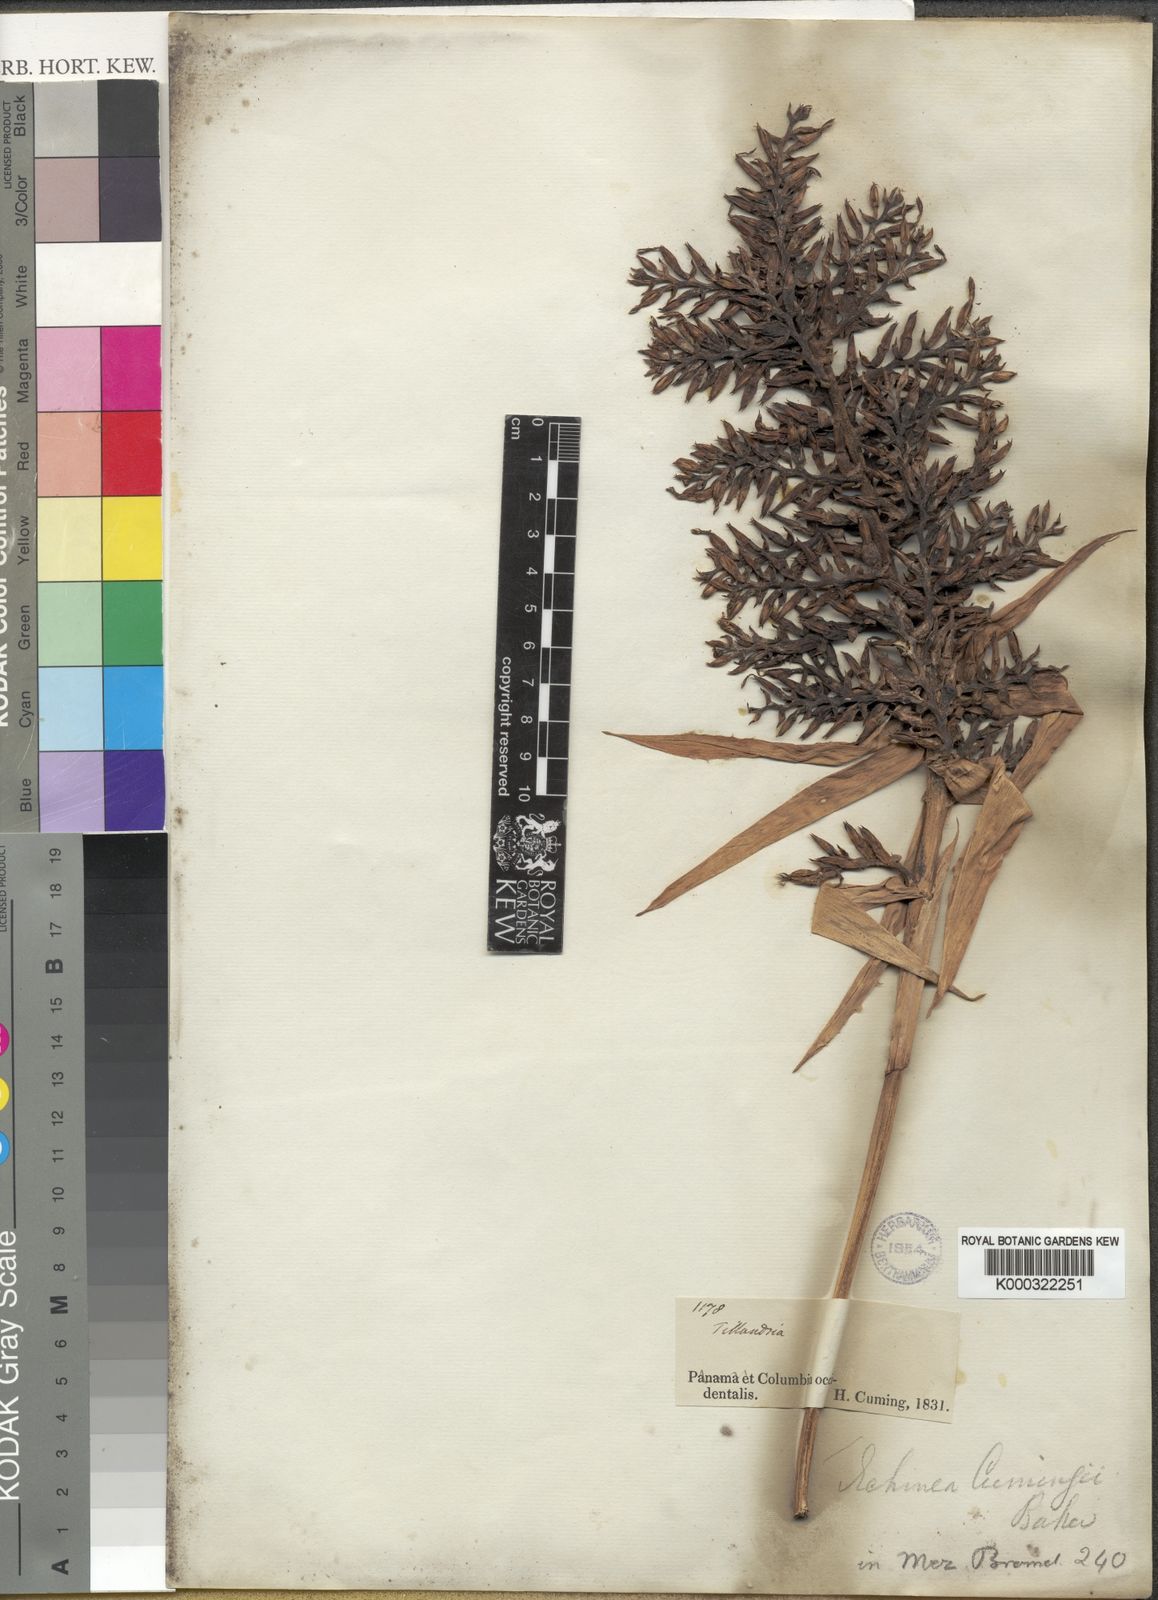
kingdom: Plantae
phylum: Tracheophyta
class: Liliopsida
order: Poales
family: Bromeliaceae
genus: Aechmea
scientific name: Aechmea angustifolia
